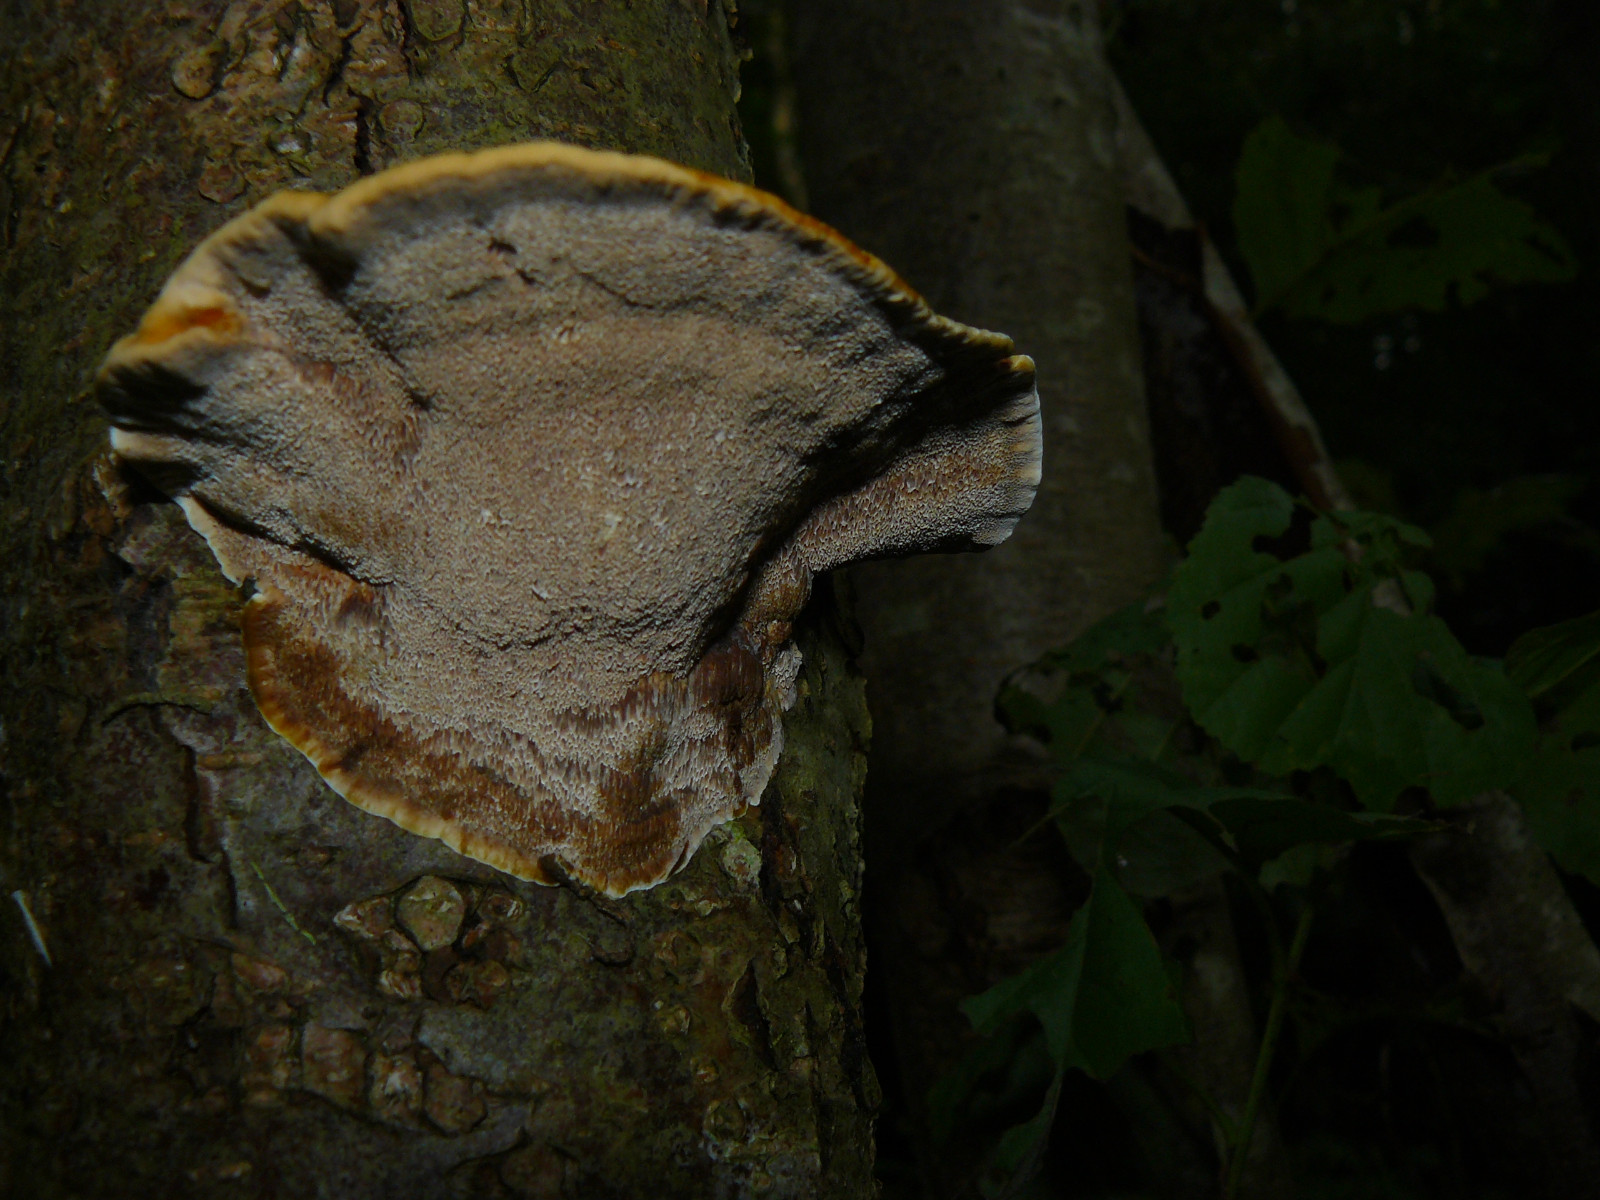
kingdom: Fungi
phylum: Basidiomycota
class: Agaricomycetes
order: Hymenochaetales
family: Hymenochaetaceae
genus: Xanthoporia
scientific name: Xanthoporia radiata
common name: elle-spejlporesvamp
